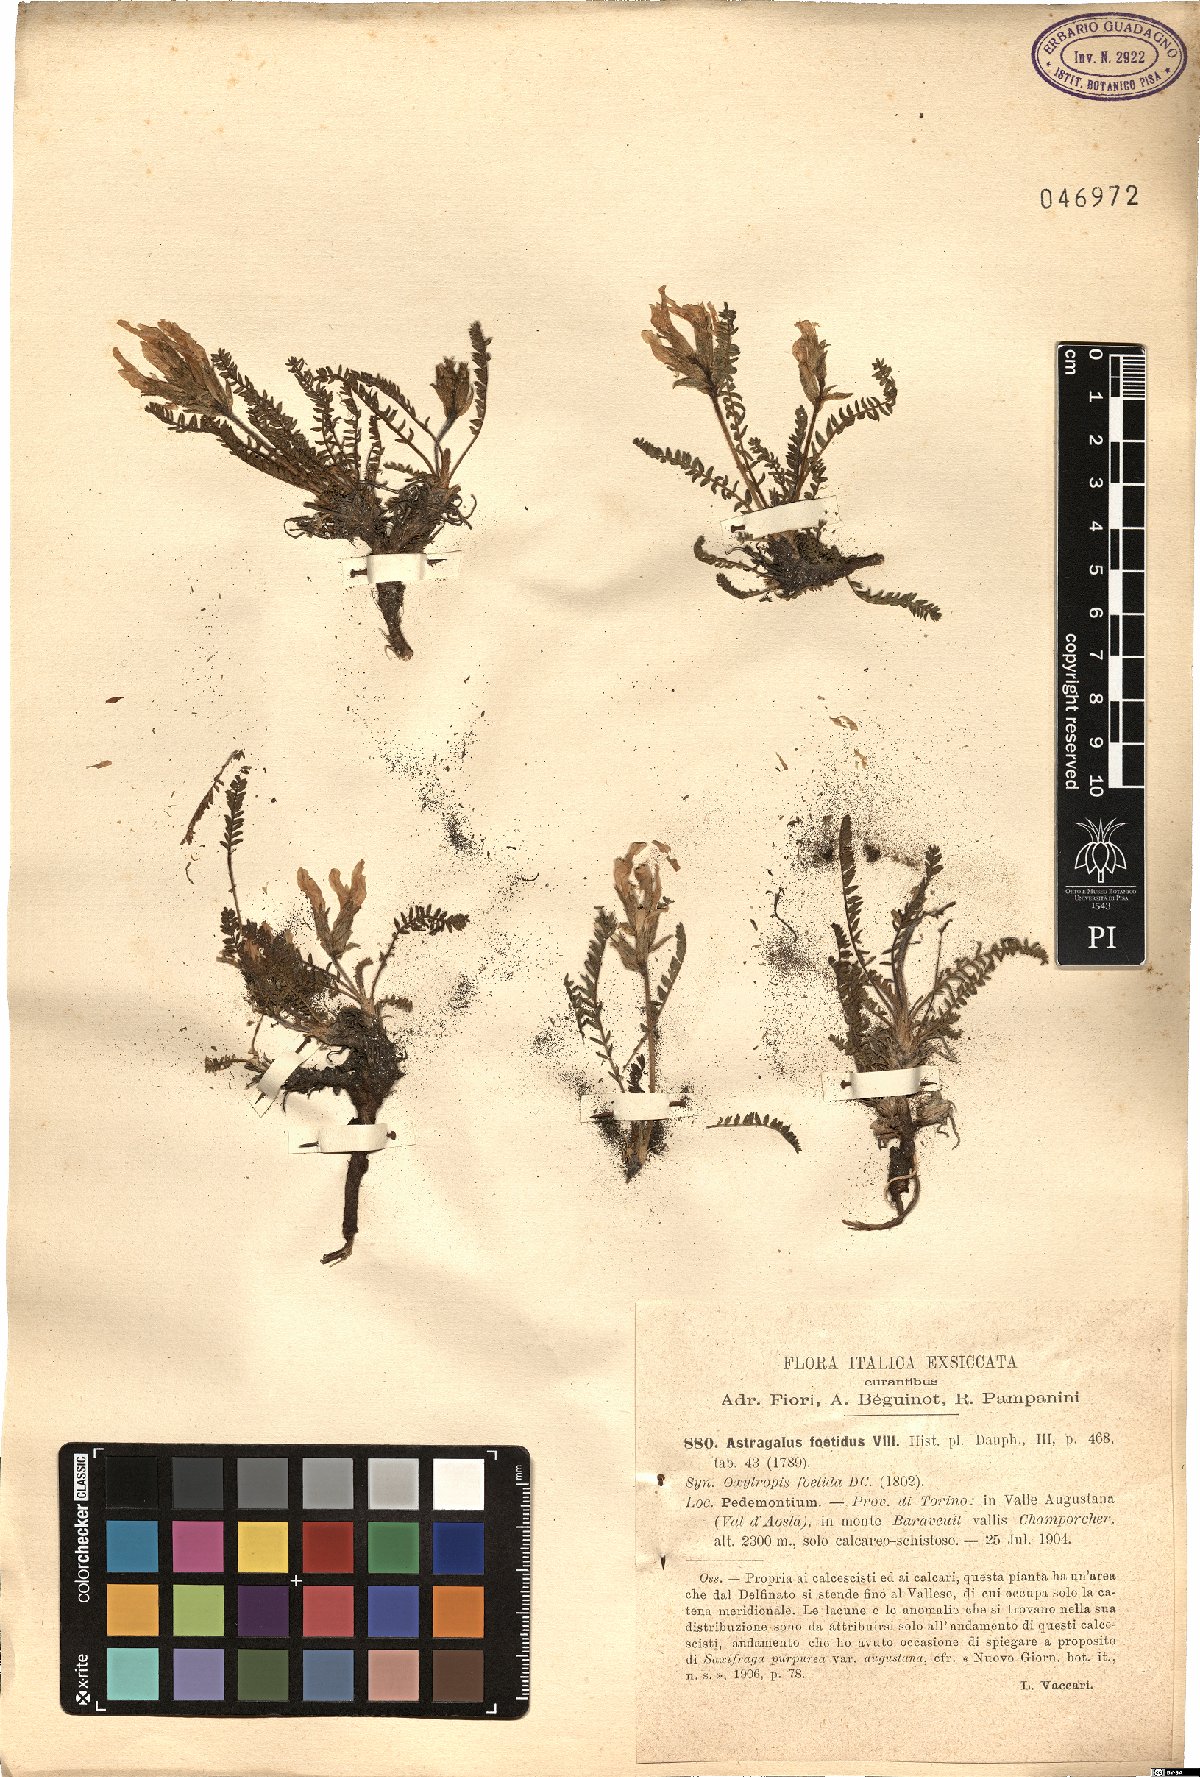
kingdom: Plantae
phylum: Tracheophyta
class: Magnoliopsida
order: Fabales
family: Fabaceae
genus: Oxytropis
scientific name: Oxytropis foetida
